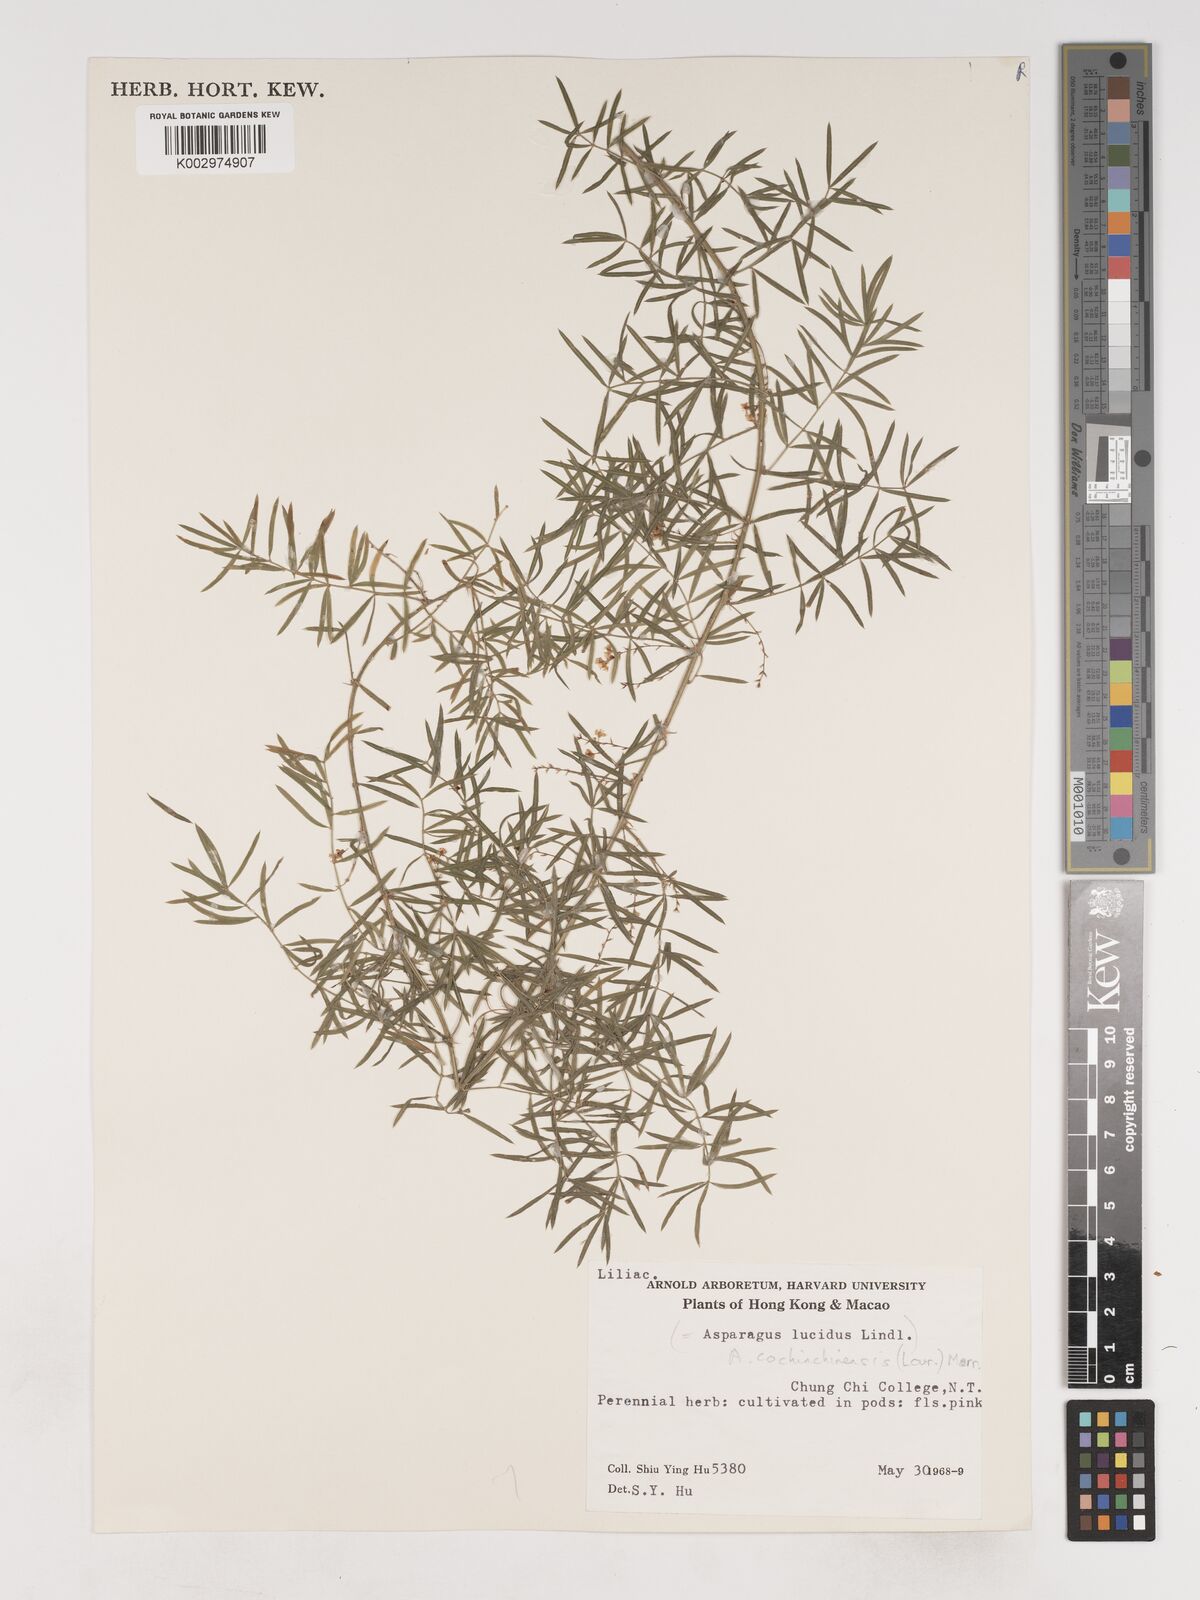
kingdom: Plantae
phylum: Tracheophyta
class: Liliopsida
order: Asparagales
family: Asparagaceae
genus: Asparagus
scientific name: Asparagus densiflorus
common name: Asparagus fern
